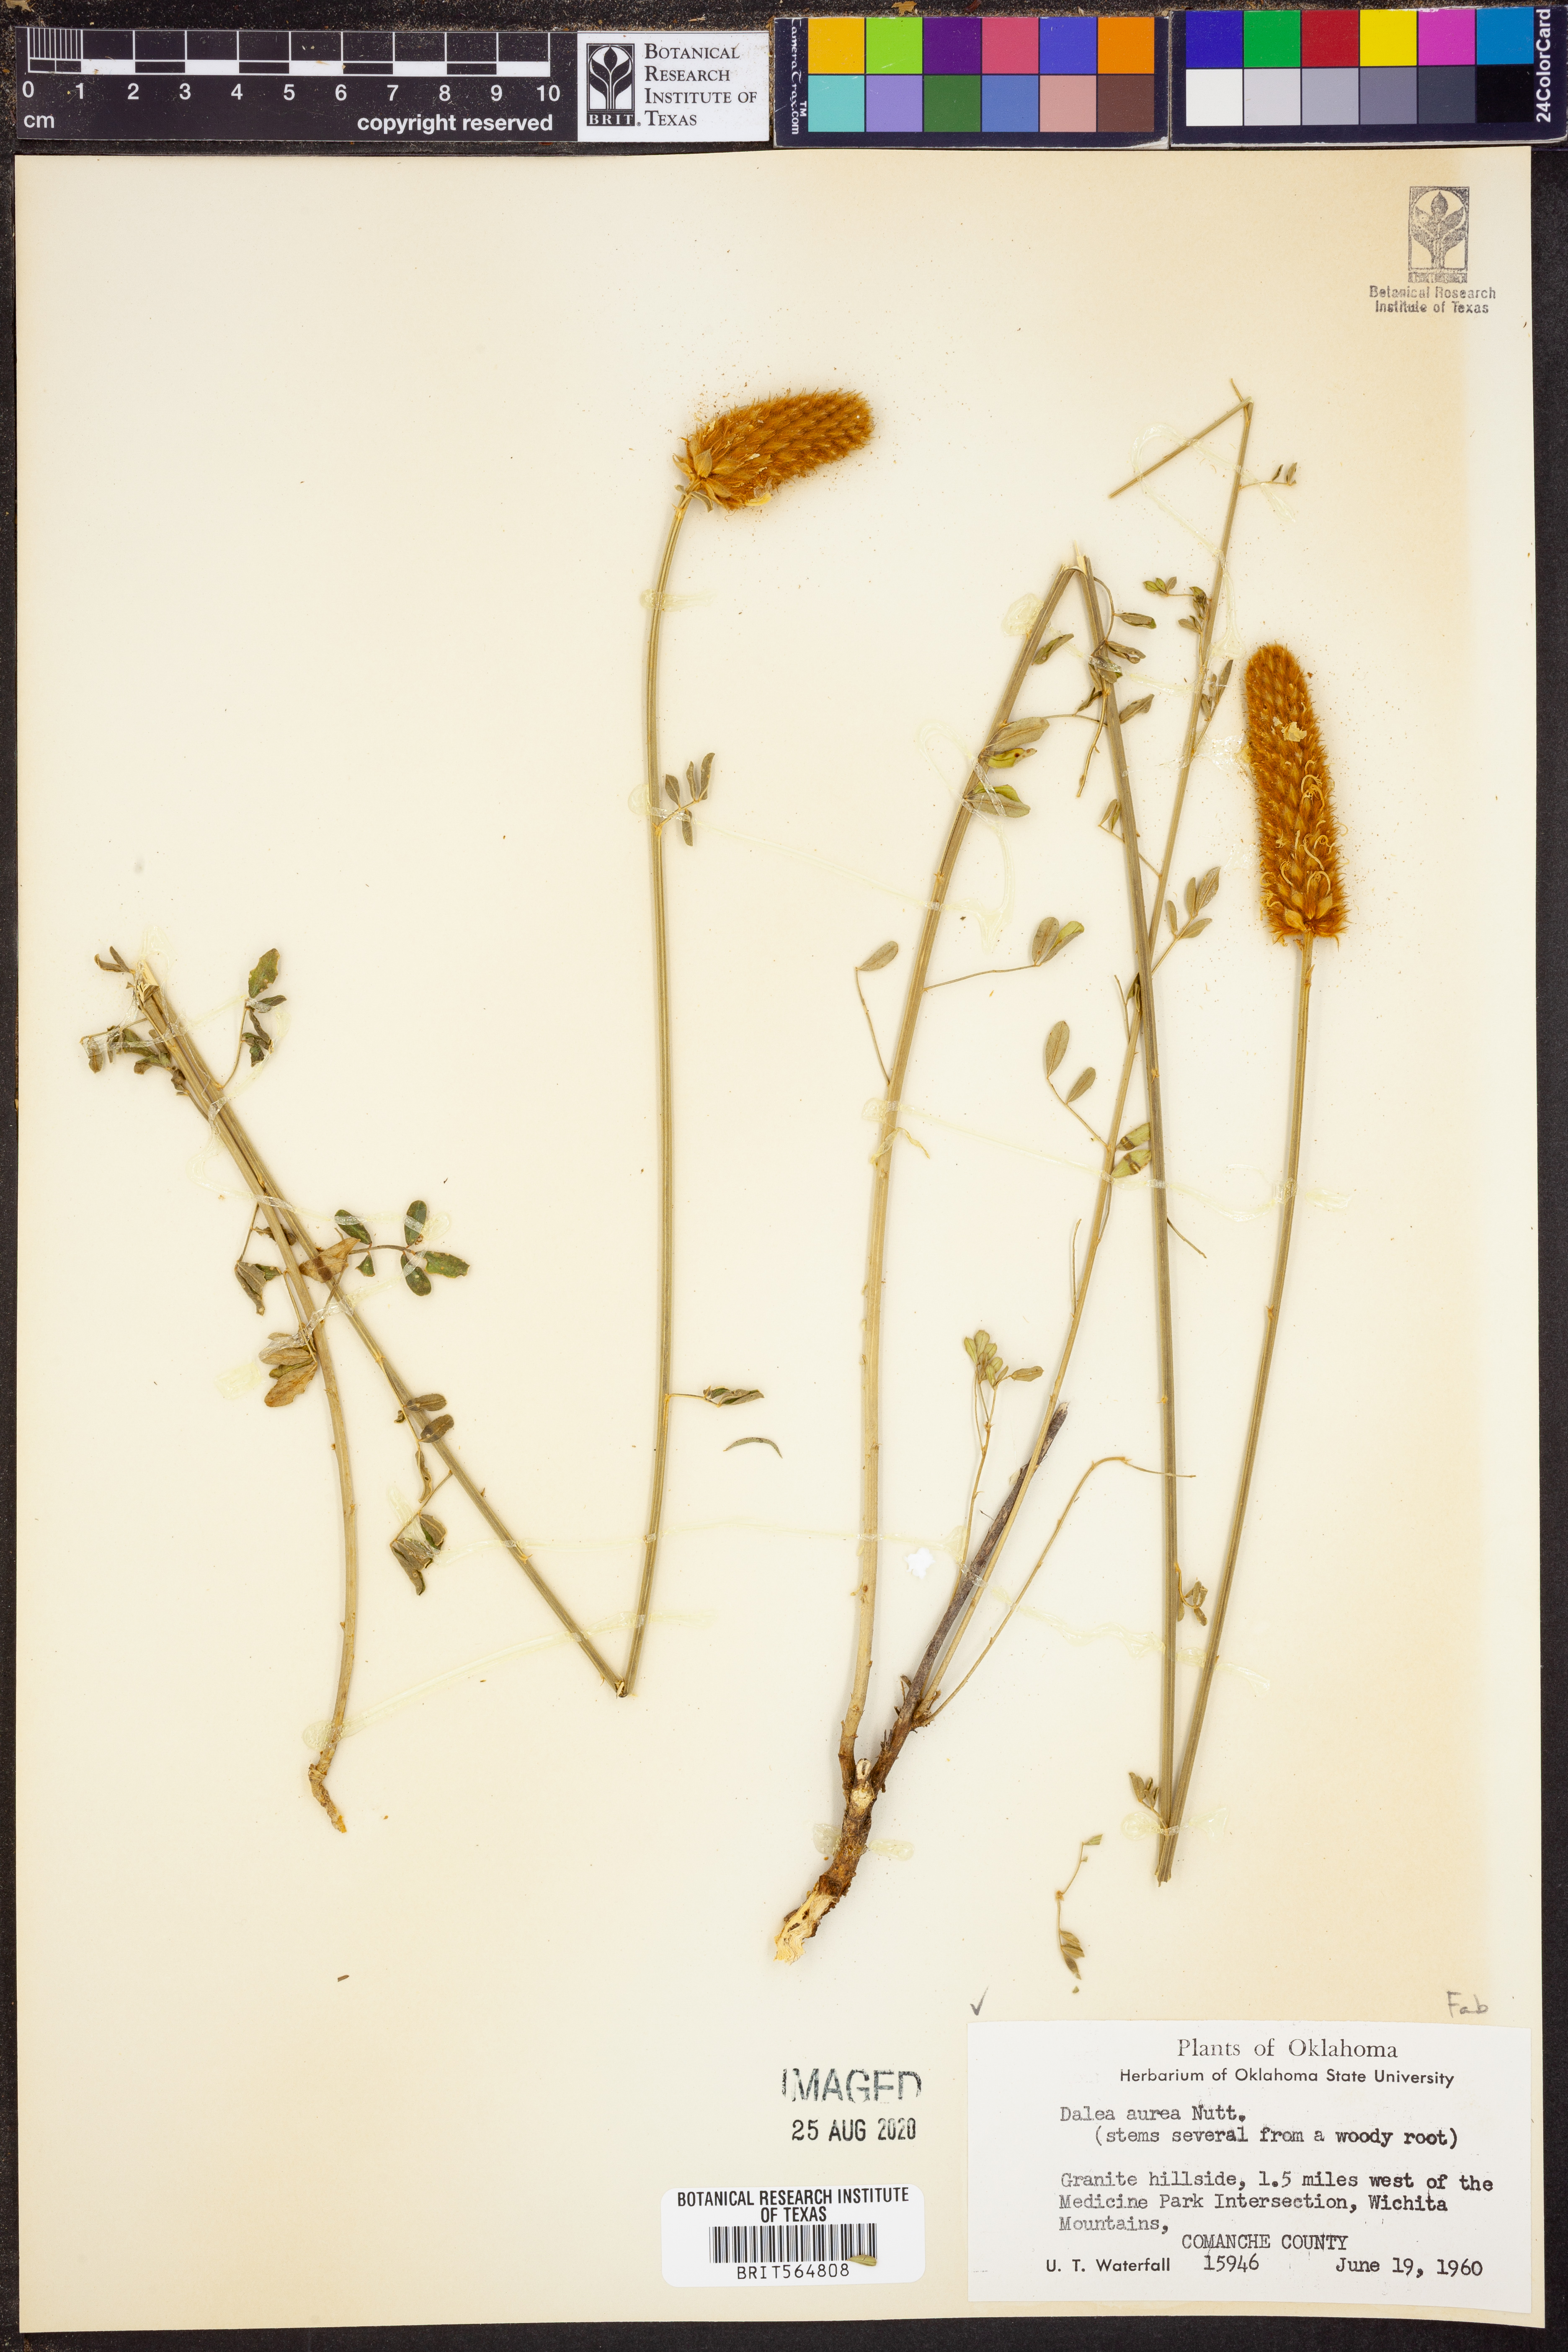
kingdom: Plantae
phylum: Tracheophyta
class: Magnoliopsida
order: Fabales
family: Fabaceae
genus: Dalea
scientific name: Dalea aurea
